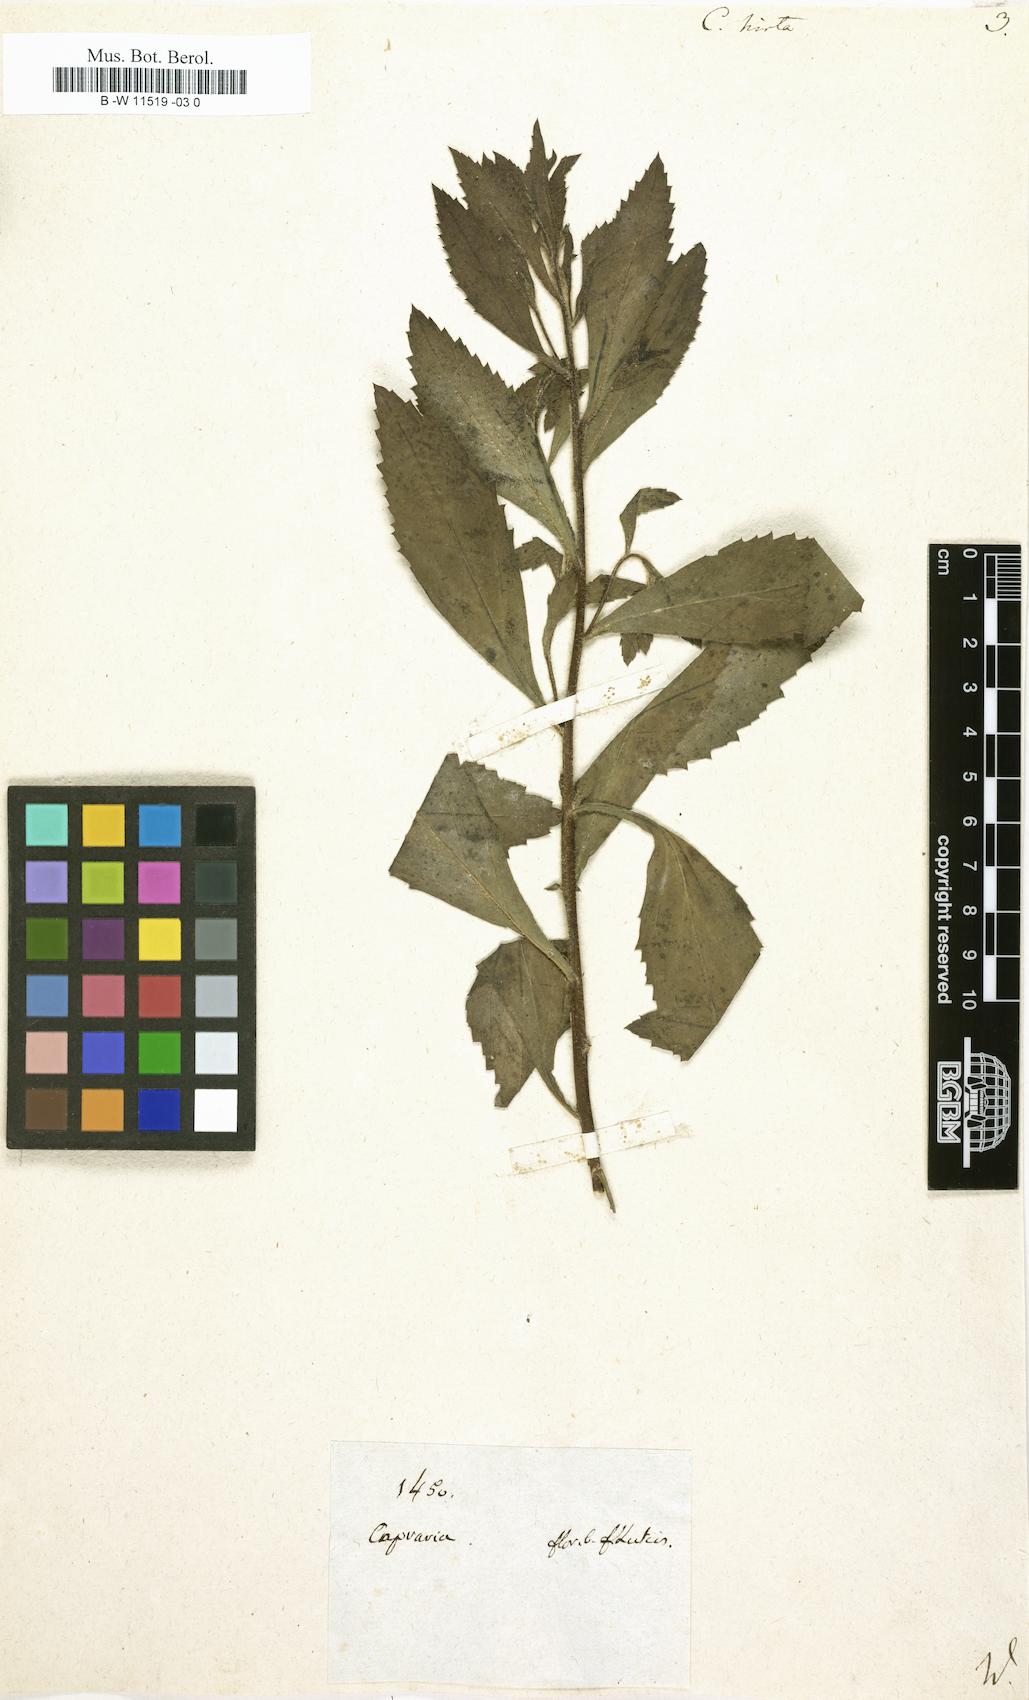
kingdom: Plantae
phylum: Tracheophyta
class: Magnoliopsida
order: Lamiales
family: Scrophulariaceae
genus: Capraria
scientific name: Capraria biflora
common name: Goatweed
